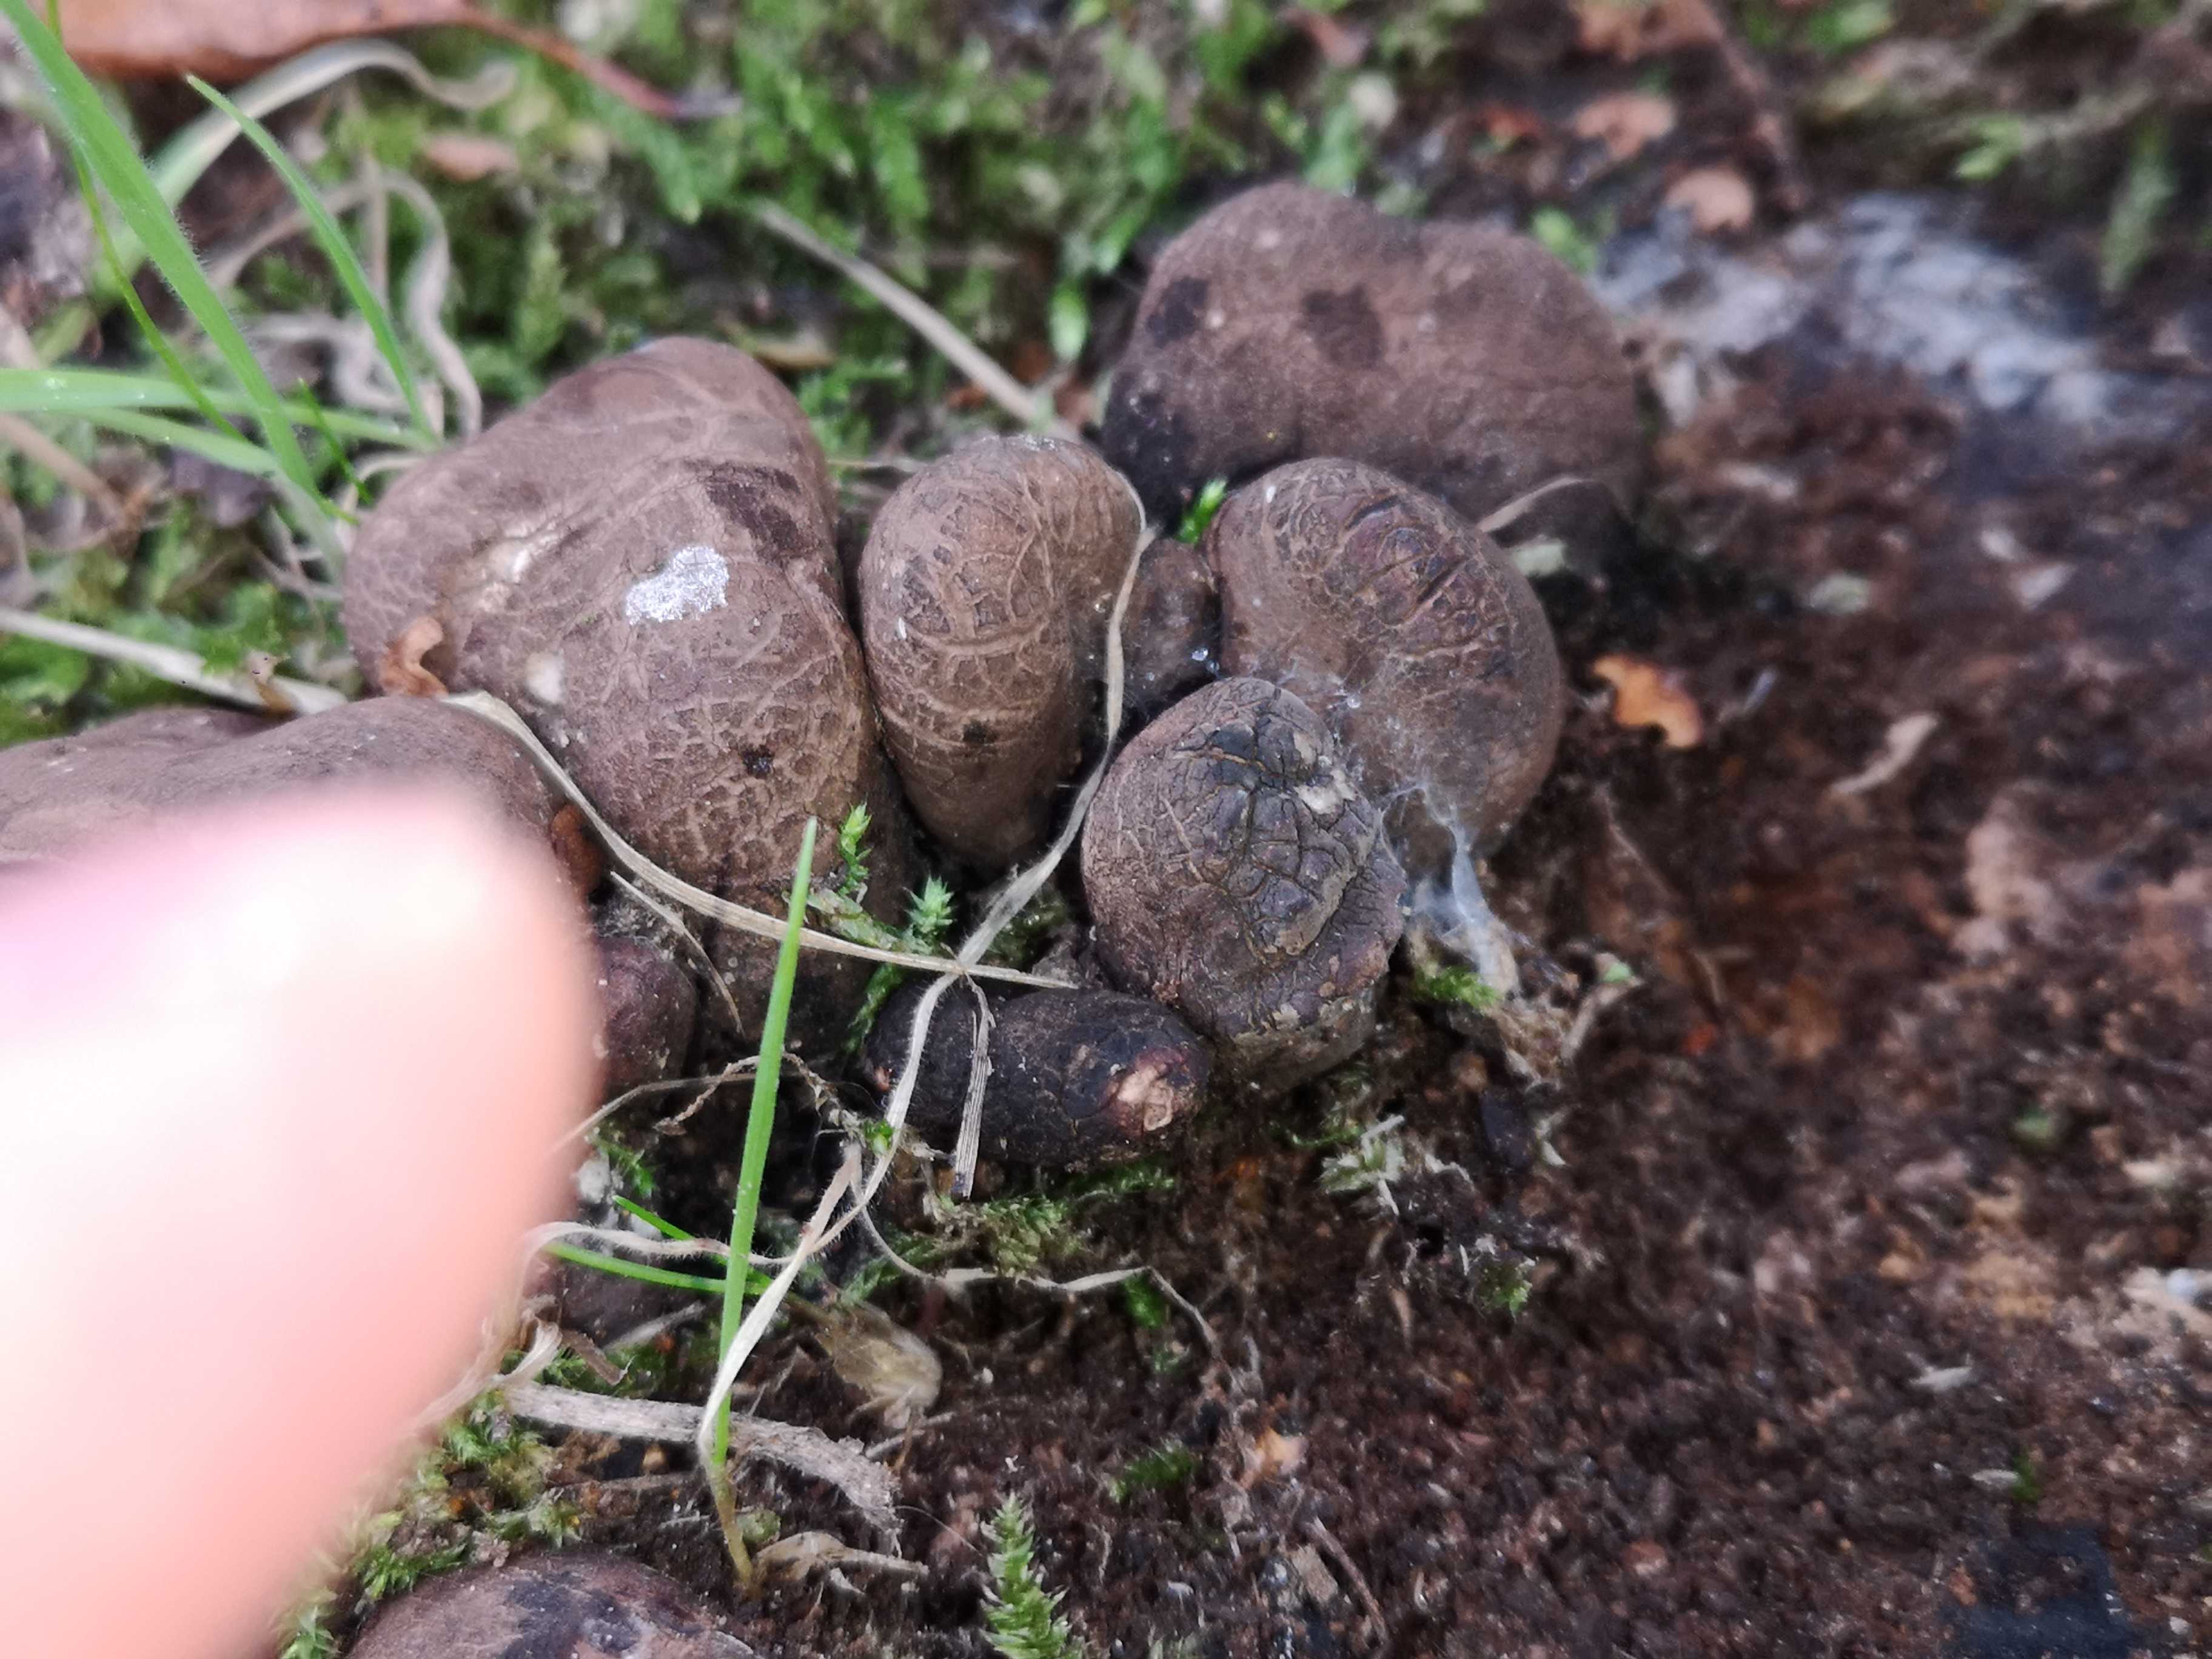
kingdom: Fungi
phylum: Ascomycota
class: Sordariomycetes
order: Xylariales
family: Xylariaceae
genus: Xylaria
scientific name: Xylaria polymorpha
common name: kølle-stødsvamp
